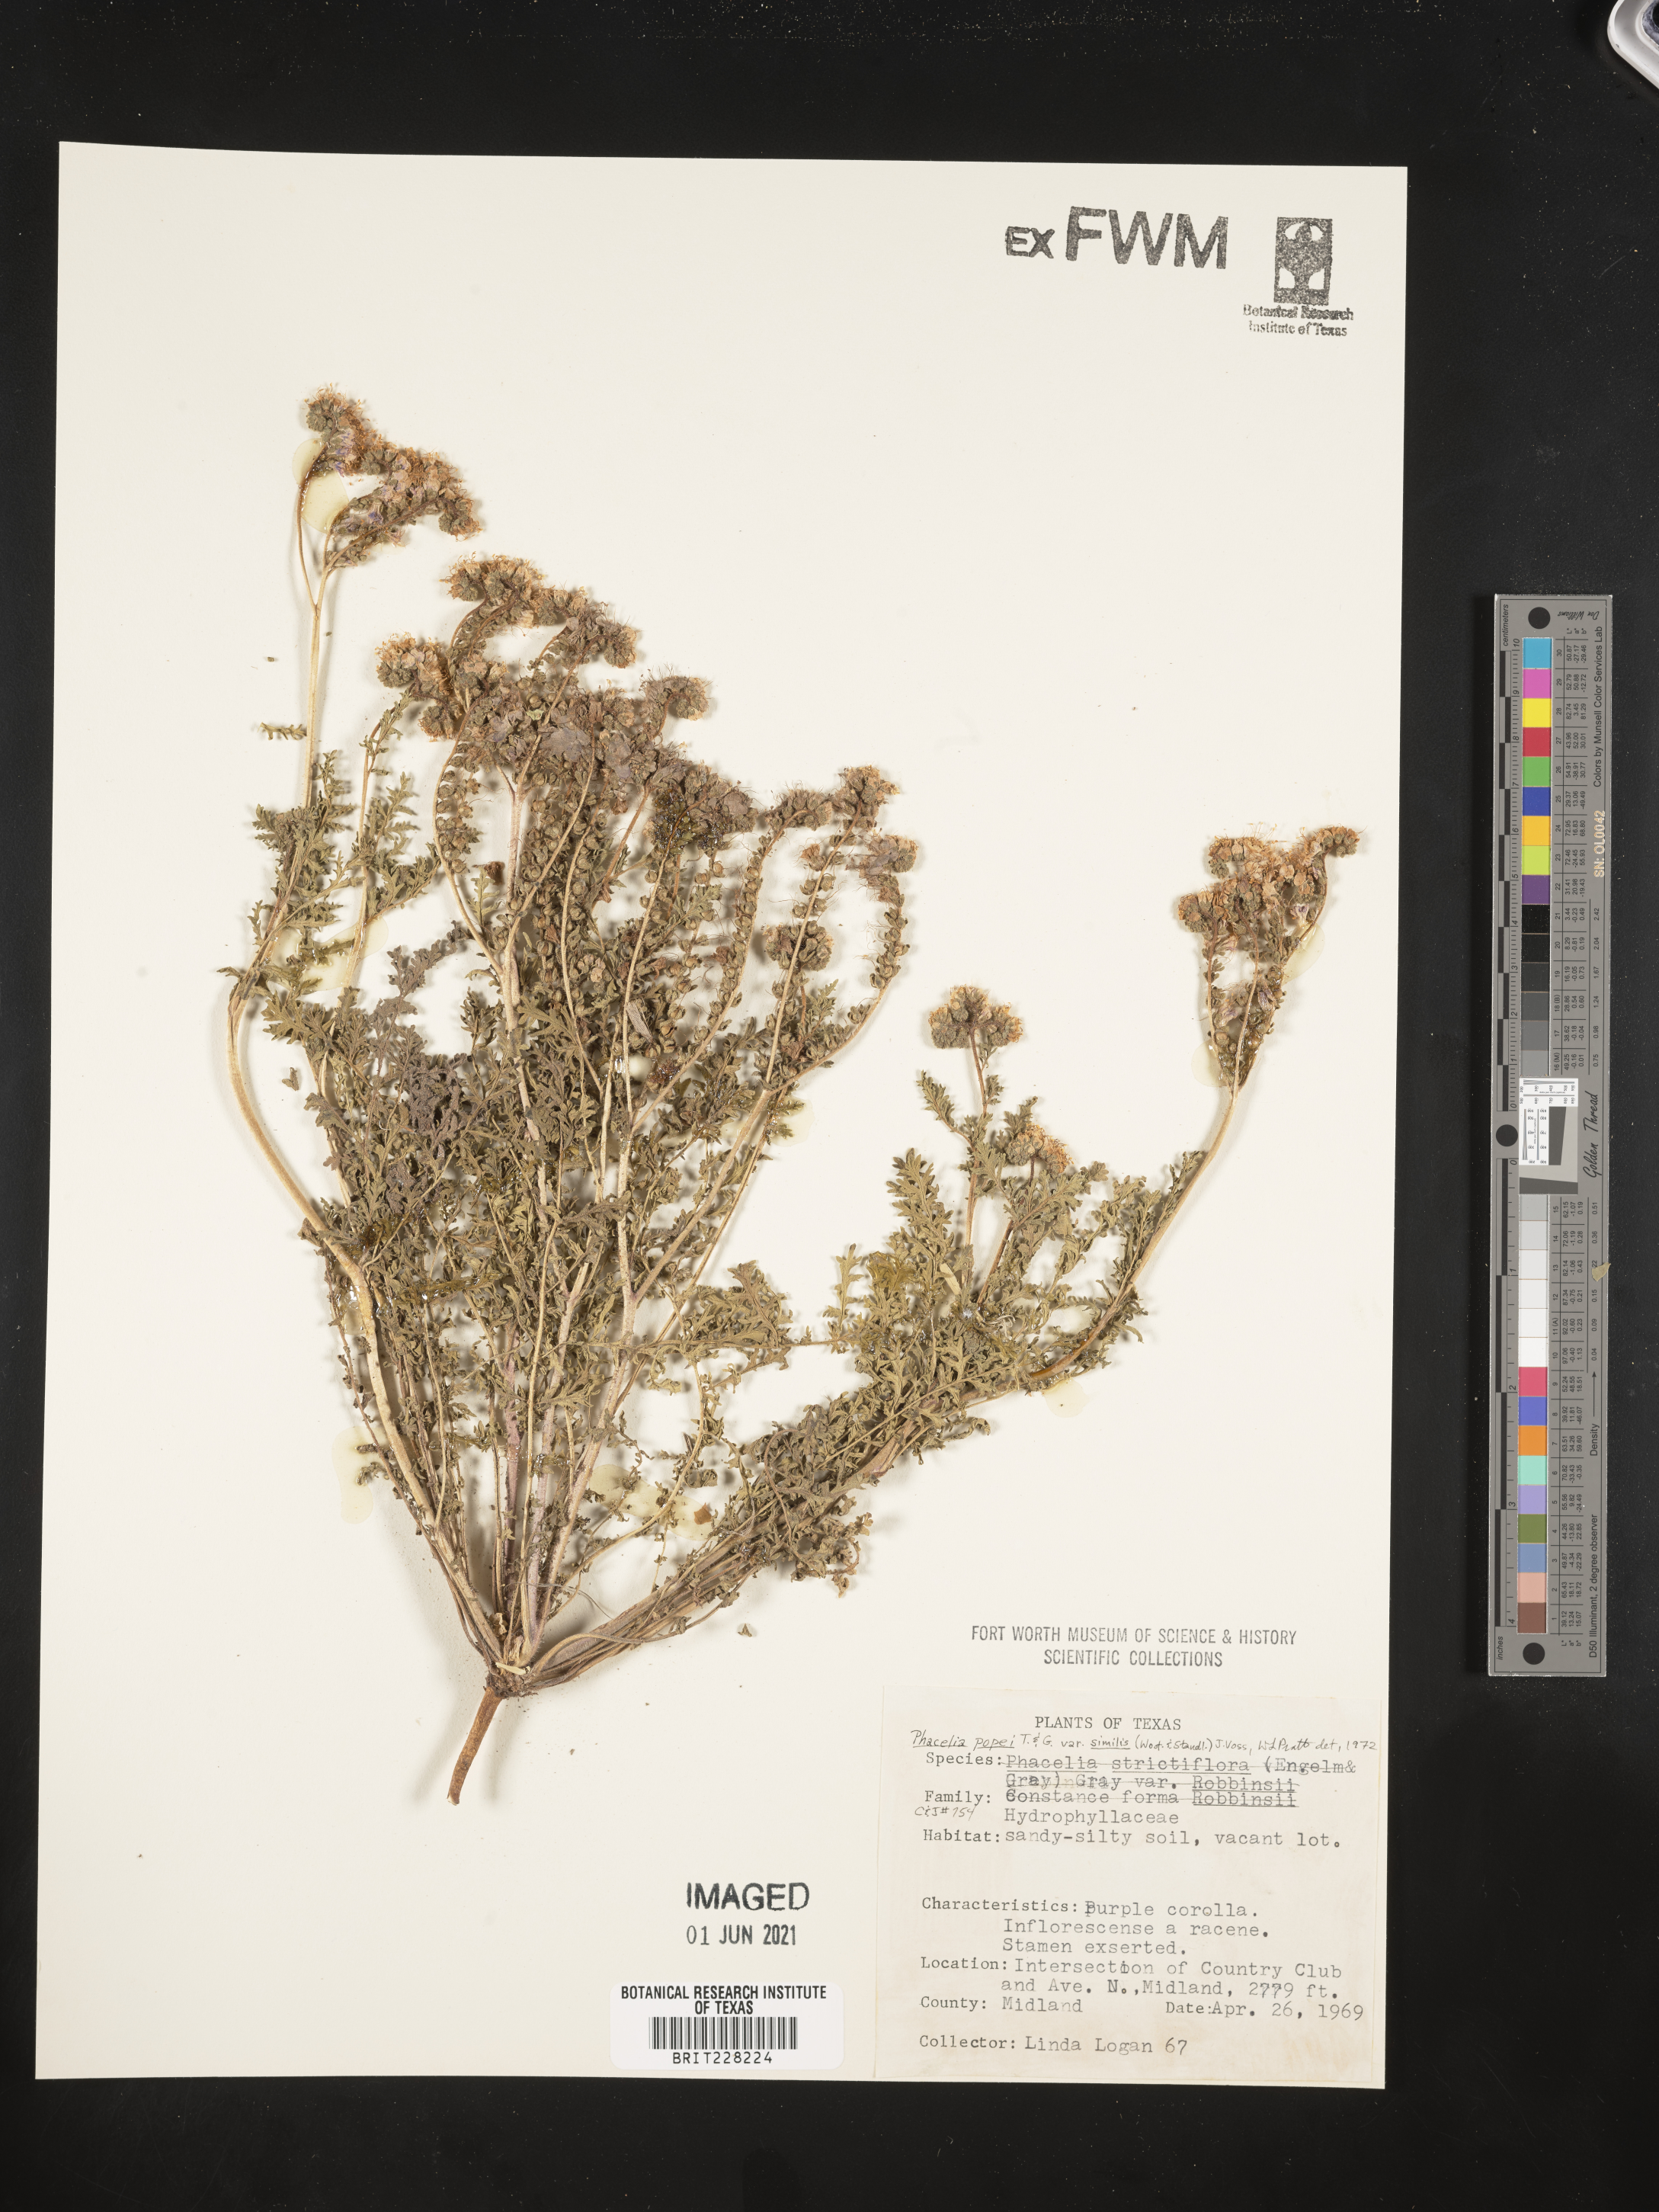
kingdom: Plantae
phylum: Tracheophyta
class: Magnoliopsida
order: Boraginales
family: Hydrophyllaceae
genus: Phacelia
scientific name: Phacelia popei
